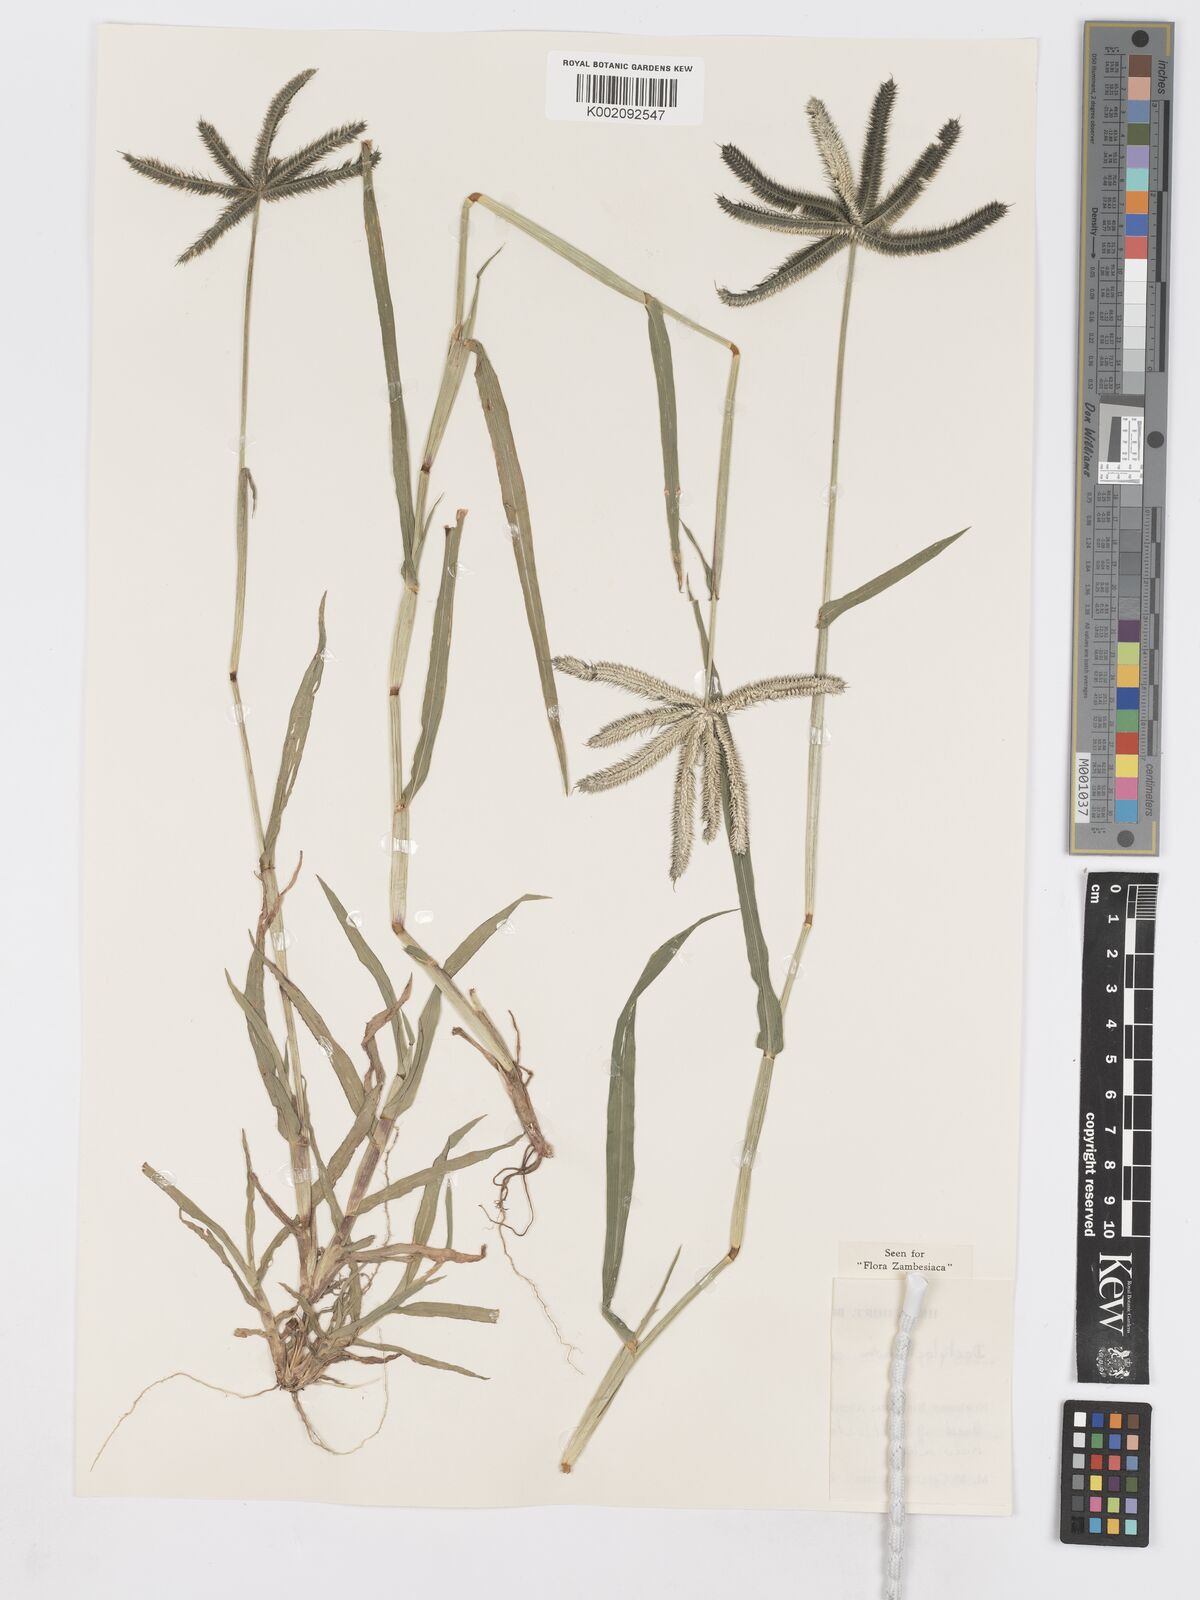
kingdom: Plantae
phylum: Tracheophyta
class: Liliopsida
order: Poales
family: Poaceae
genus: Dactyloctenium
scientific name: Dactyloctenium aegyptium
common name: Egyptian grass
